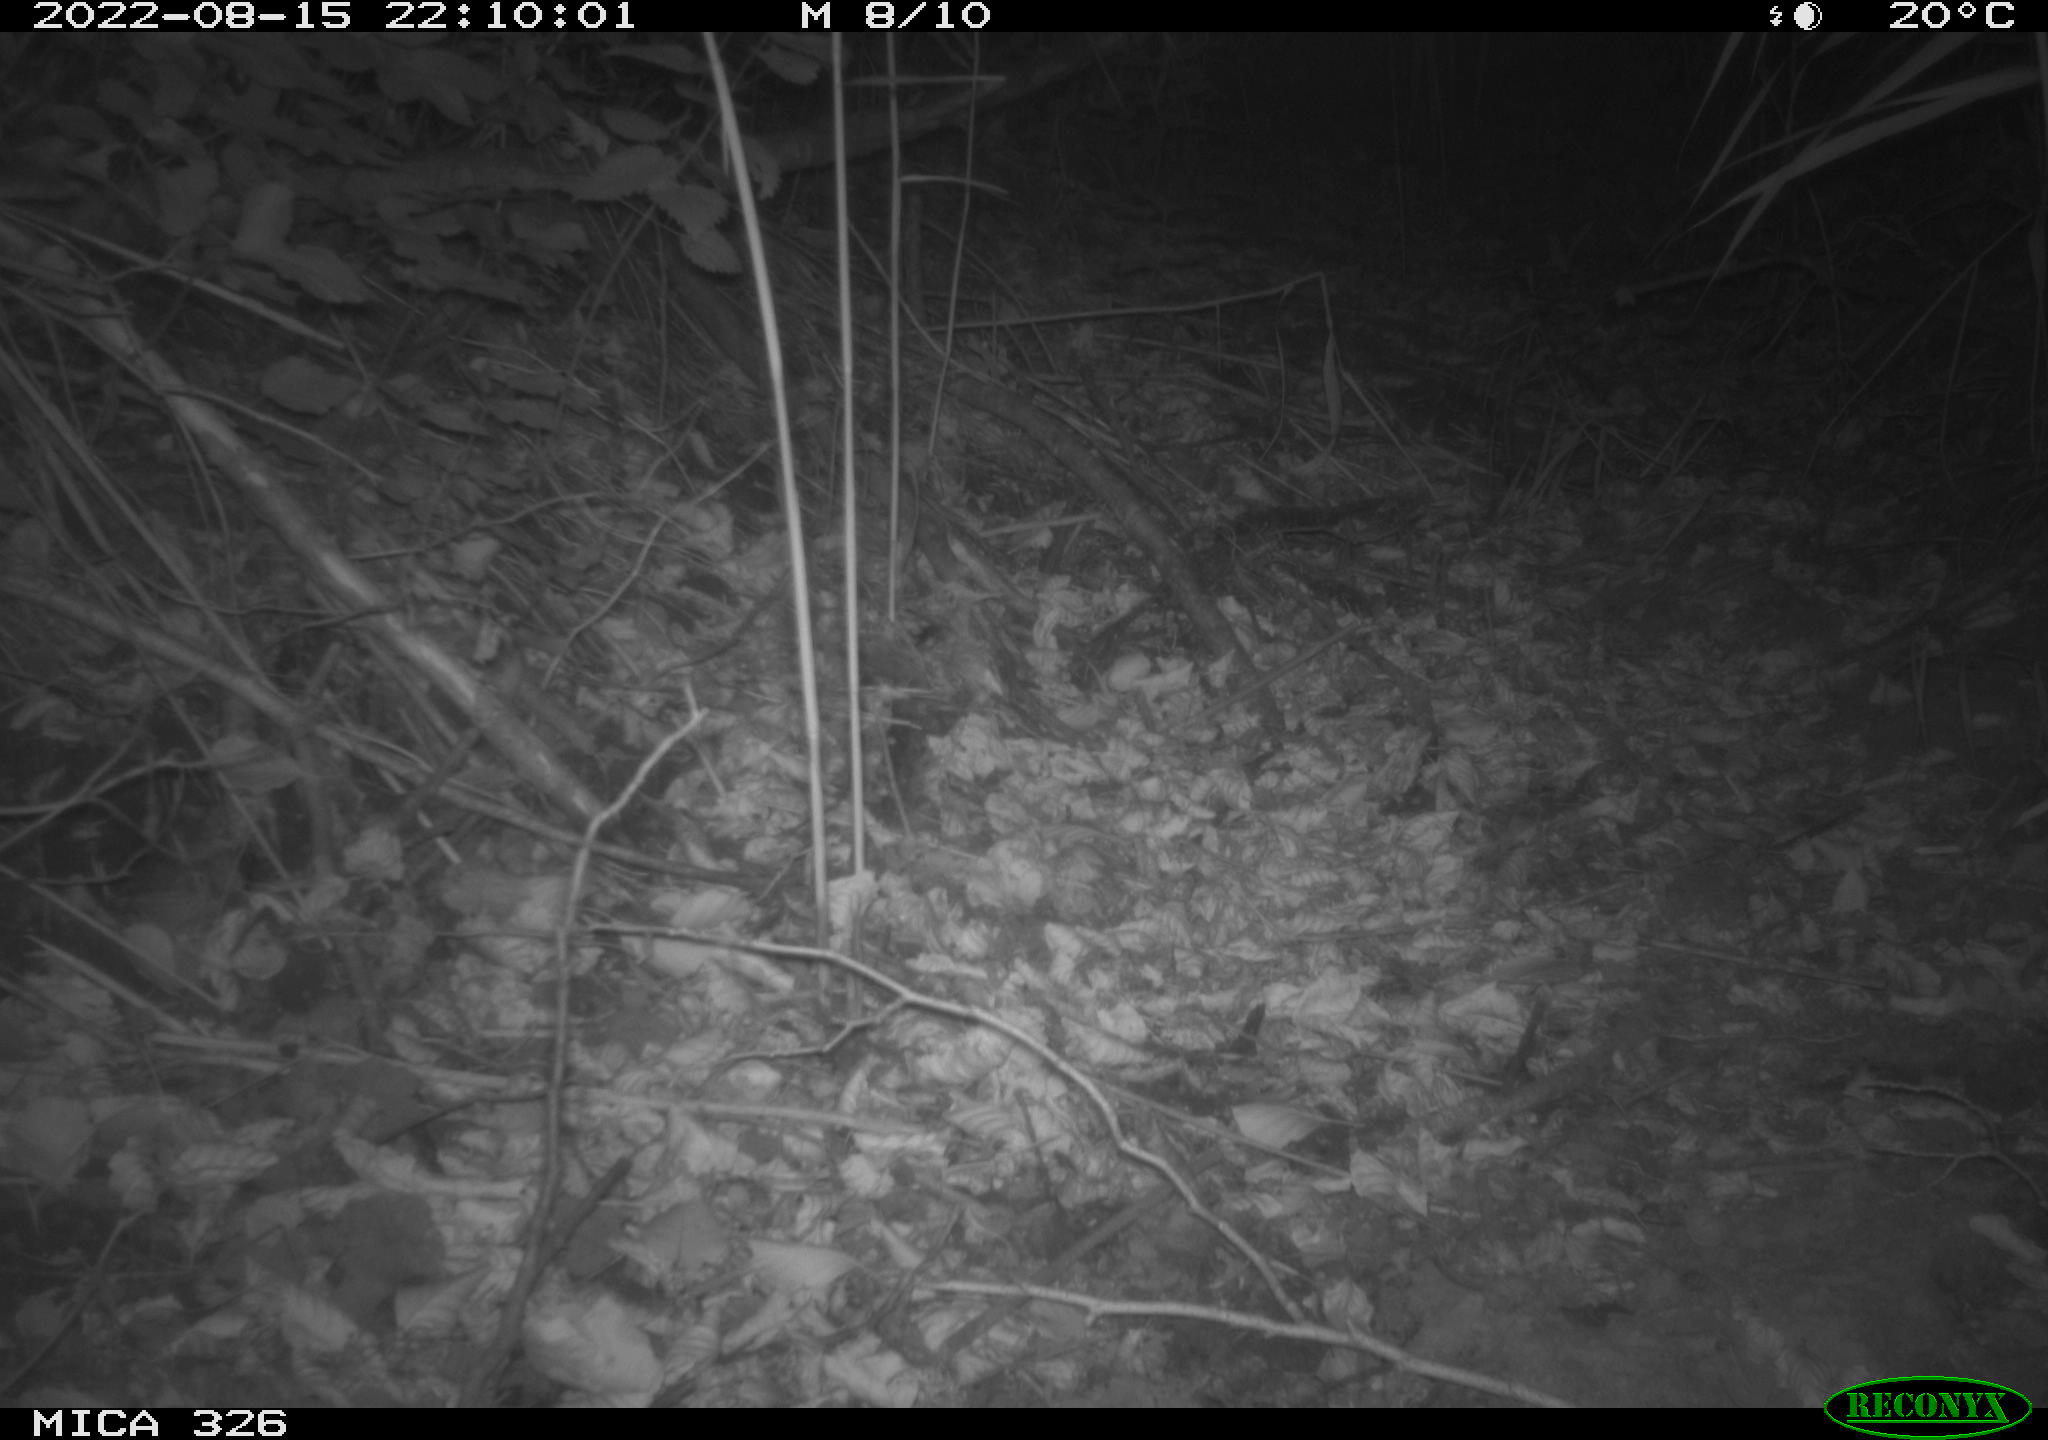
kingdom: Animalia
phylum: Chordata
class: Mammalia
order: Carnivora
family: Mustelidae
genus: Mustela
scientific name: Mustela putorius
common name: European polecat
